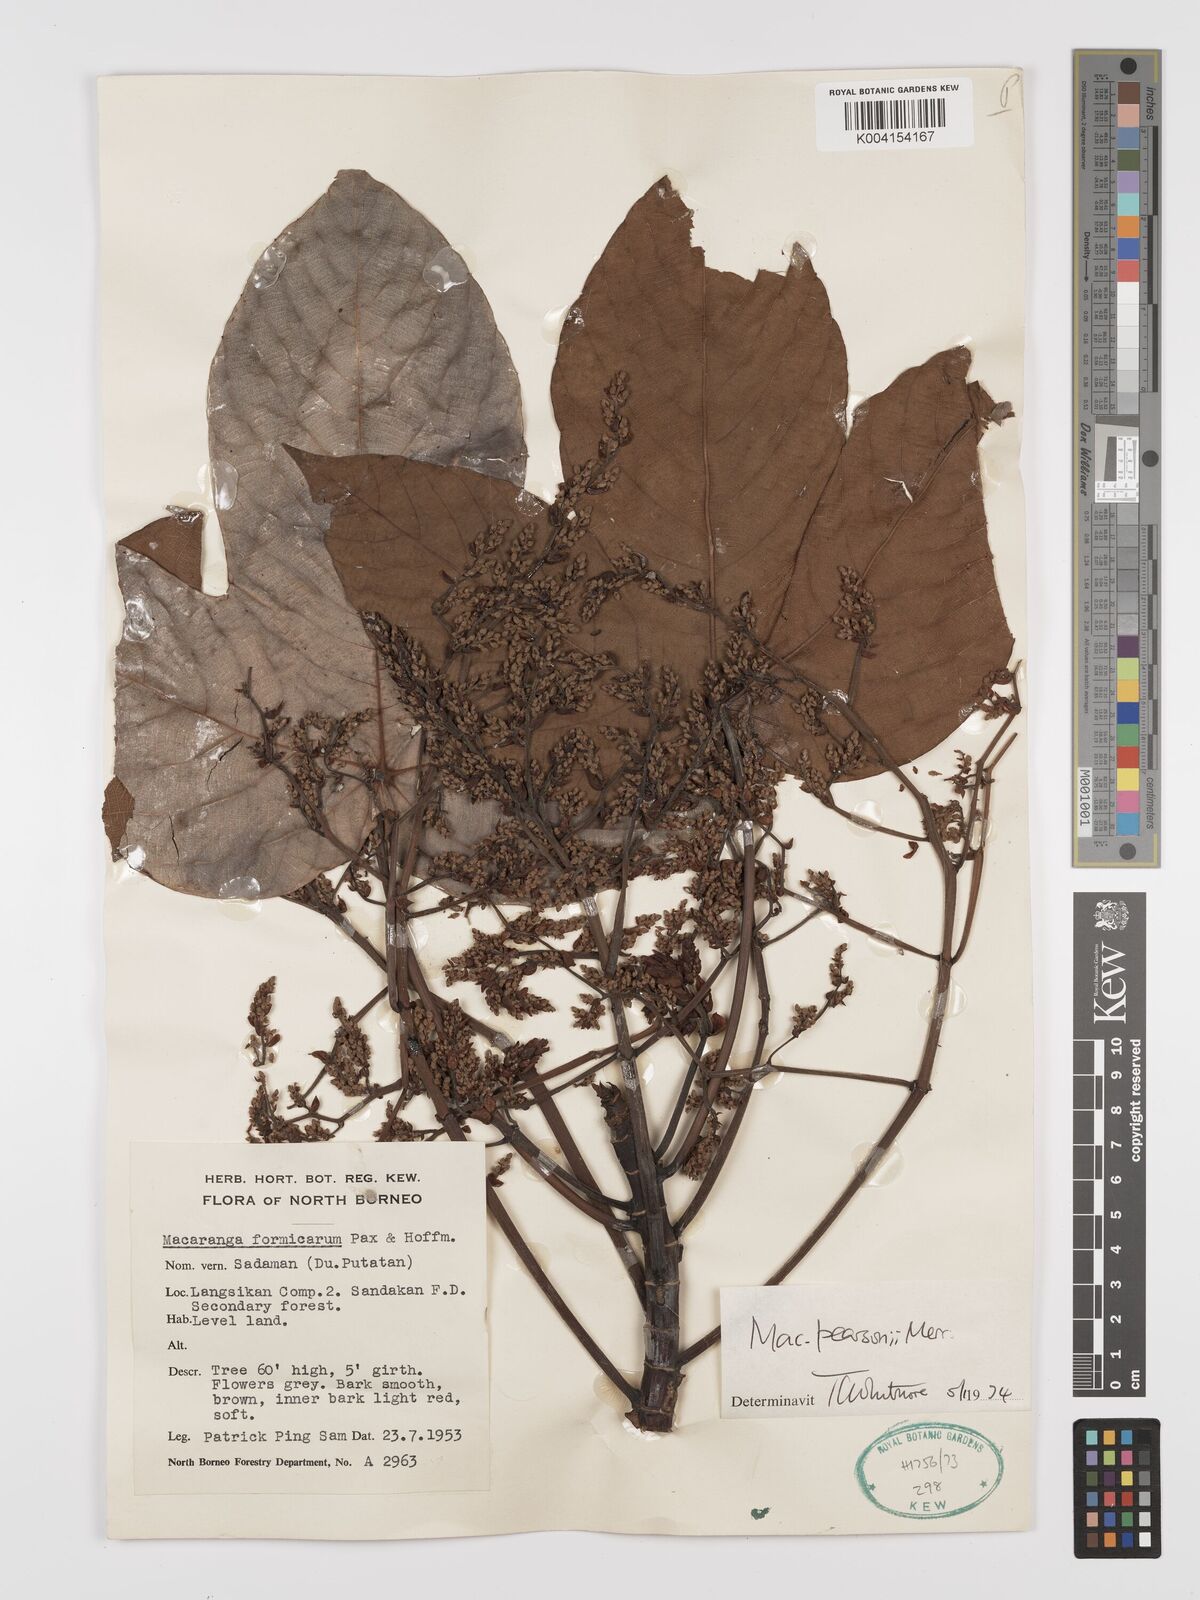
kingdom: Plantae
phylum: Tracheophyta
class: Magnoliopsida
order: Malpighiales
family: Euphorbiaceae
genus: Macaranga
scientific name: Macaranga pearsonii
